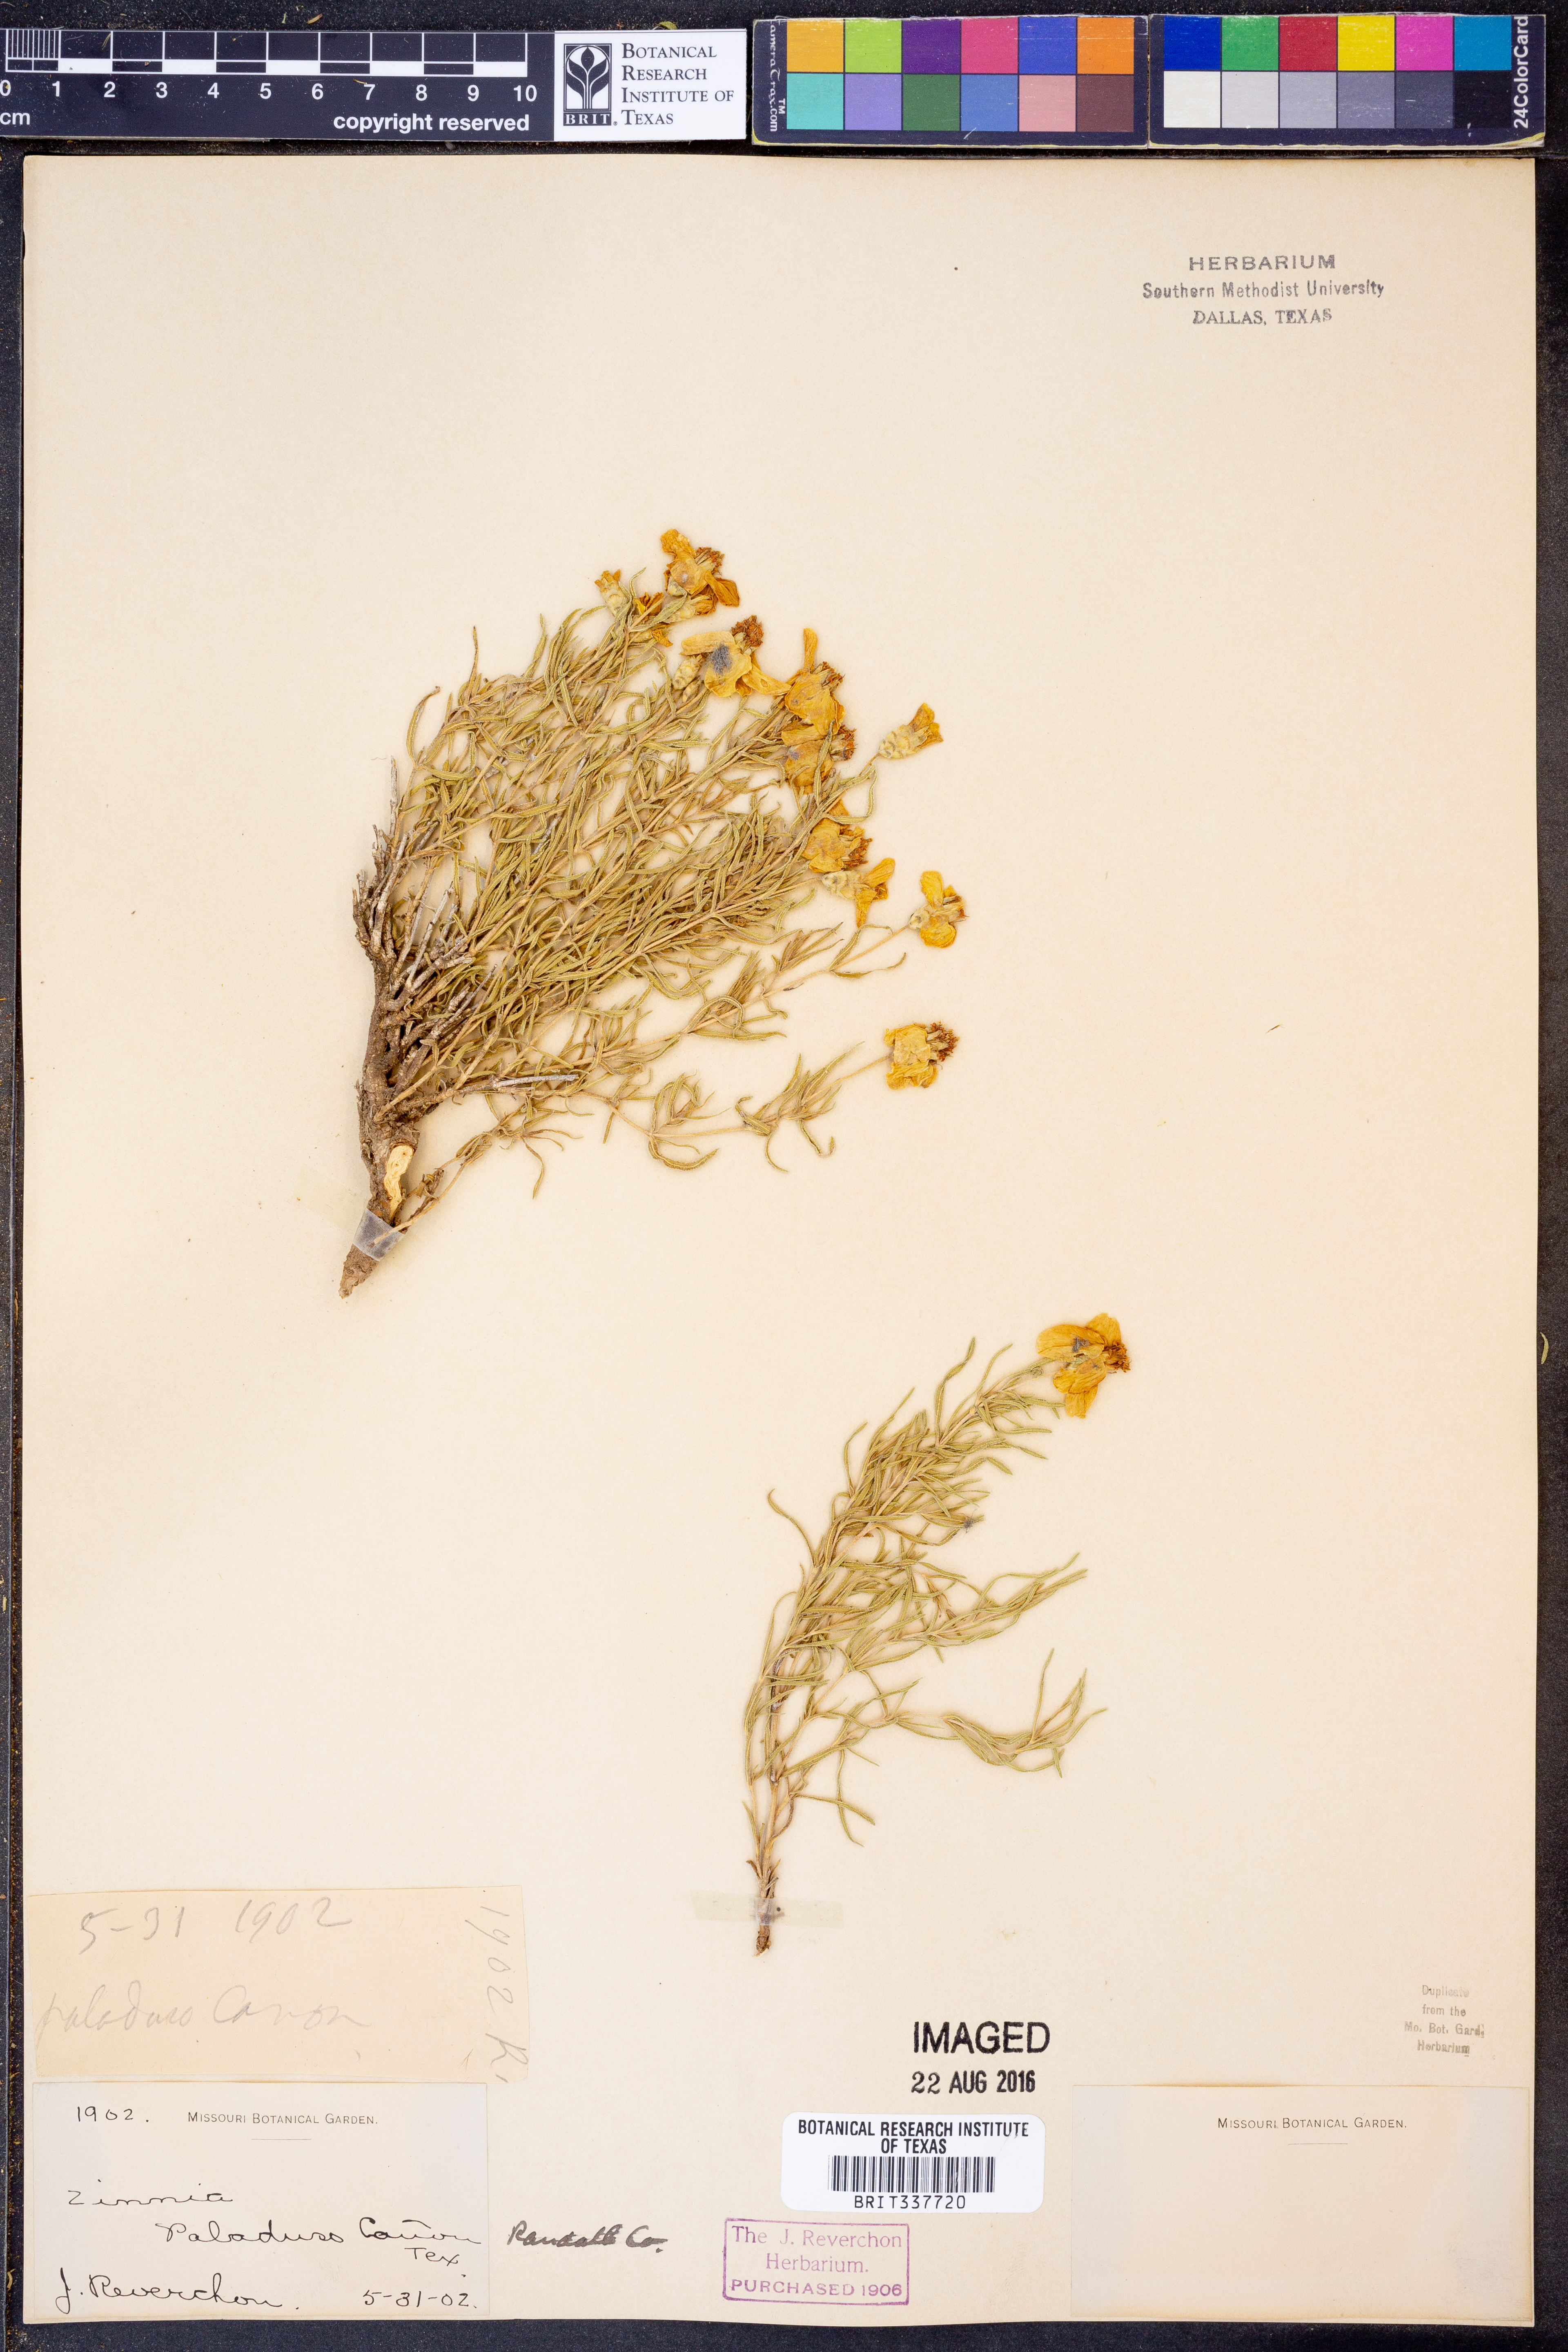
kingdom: Plantae
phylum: Tracheophyta
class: Magnoliopsida
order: Asterales
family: Asteraceae
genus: Zinnia
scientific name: Zinnia
